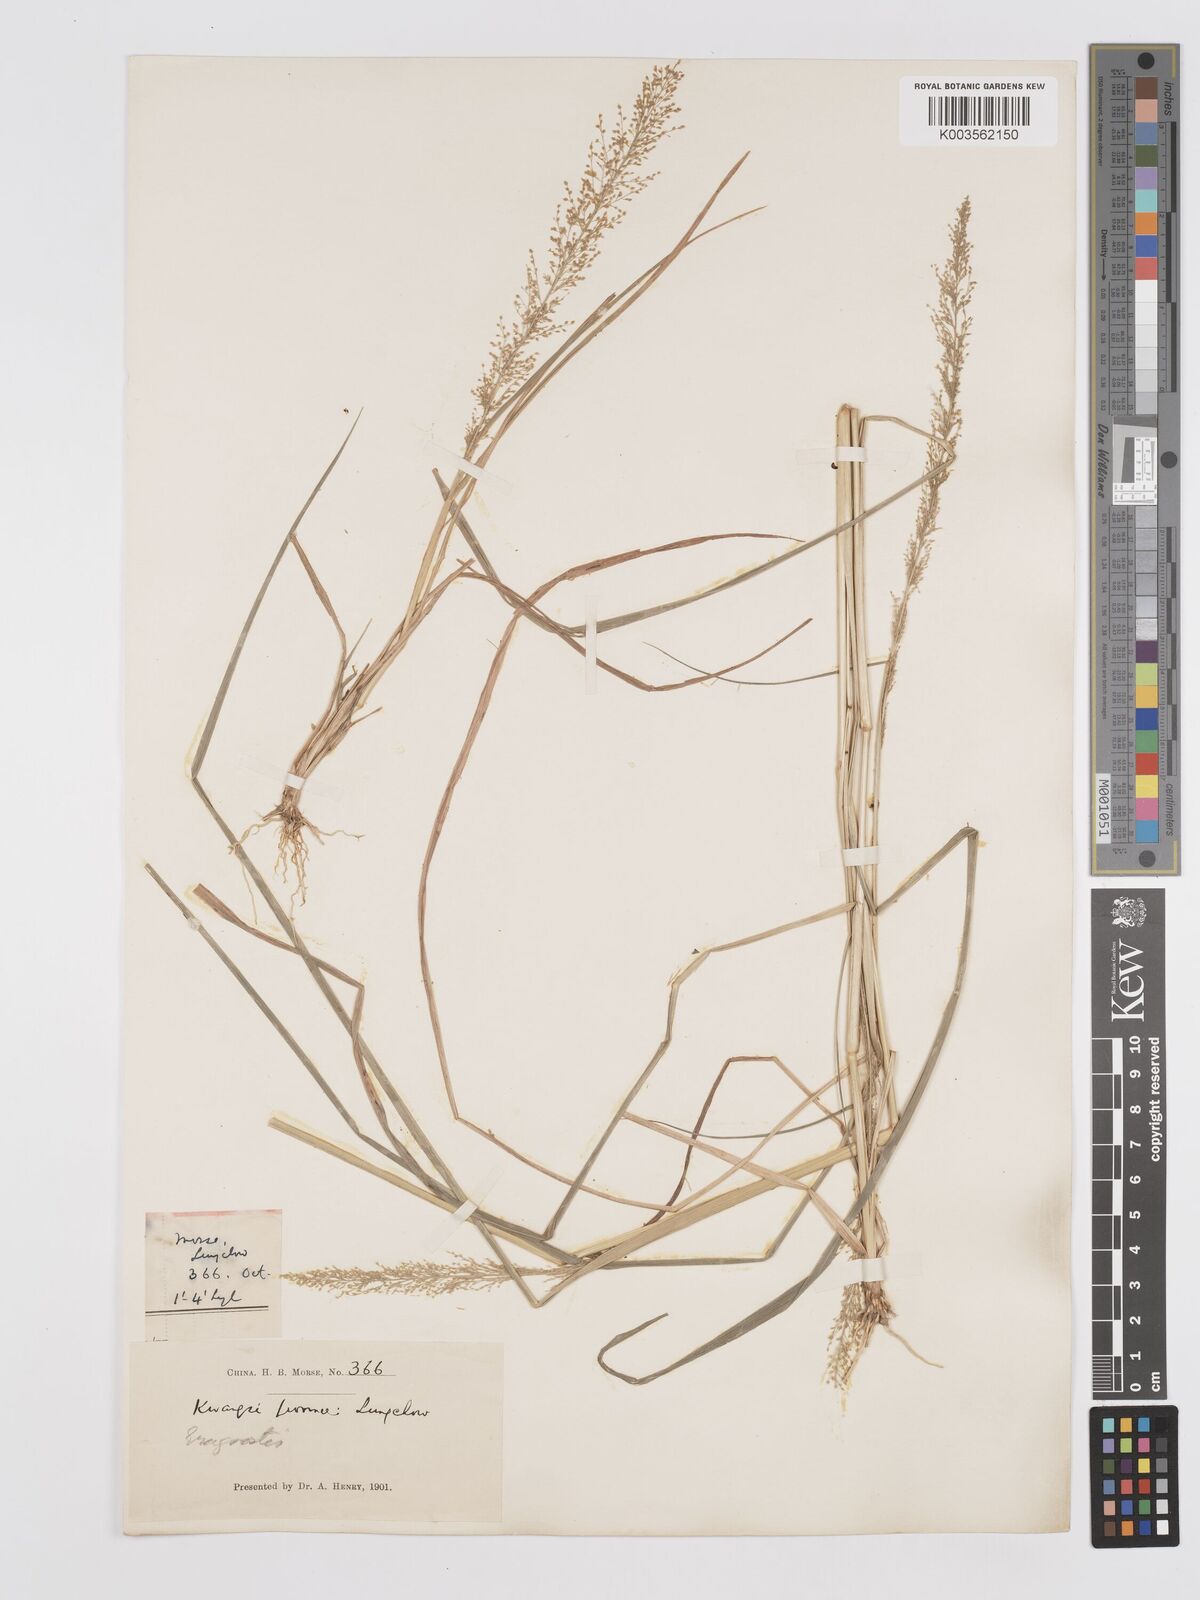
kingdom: Plantae
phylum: Tracheophyta
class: Liliopsida
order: Poales
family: Poaceae
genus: Eragrostis
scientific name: Eragrostis japonica
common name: Pond lovegrass
